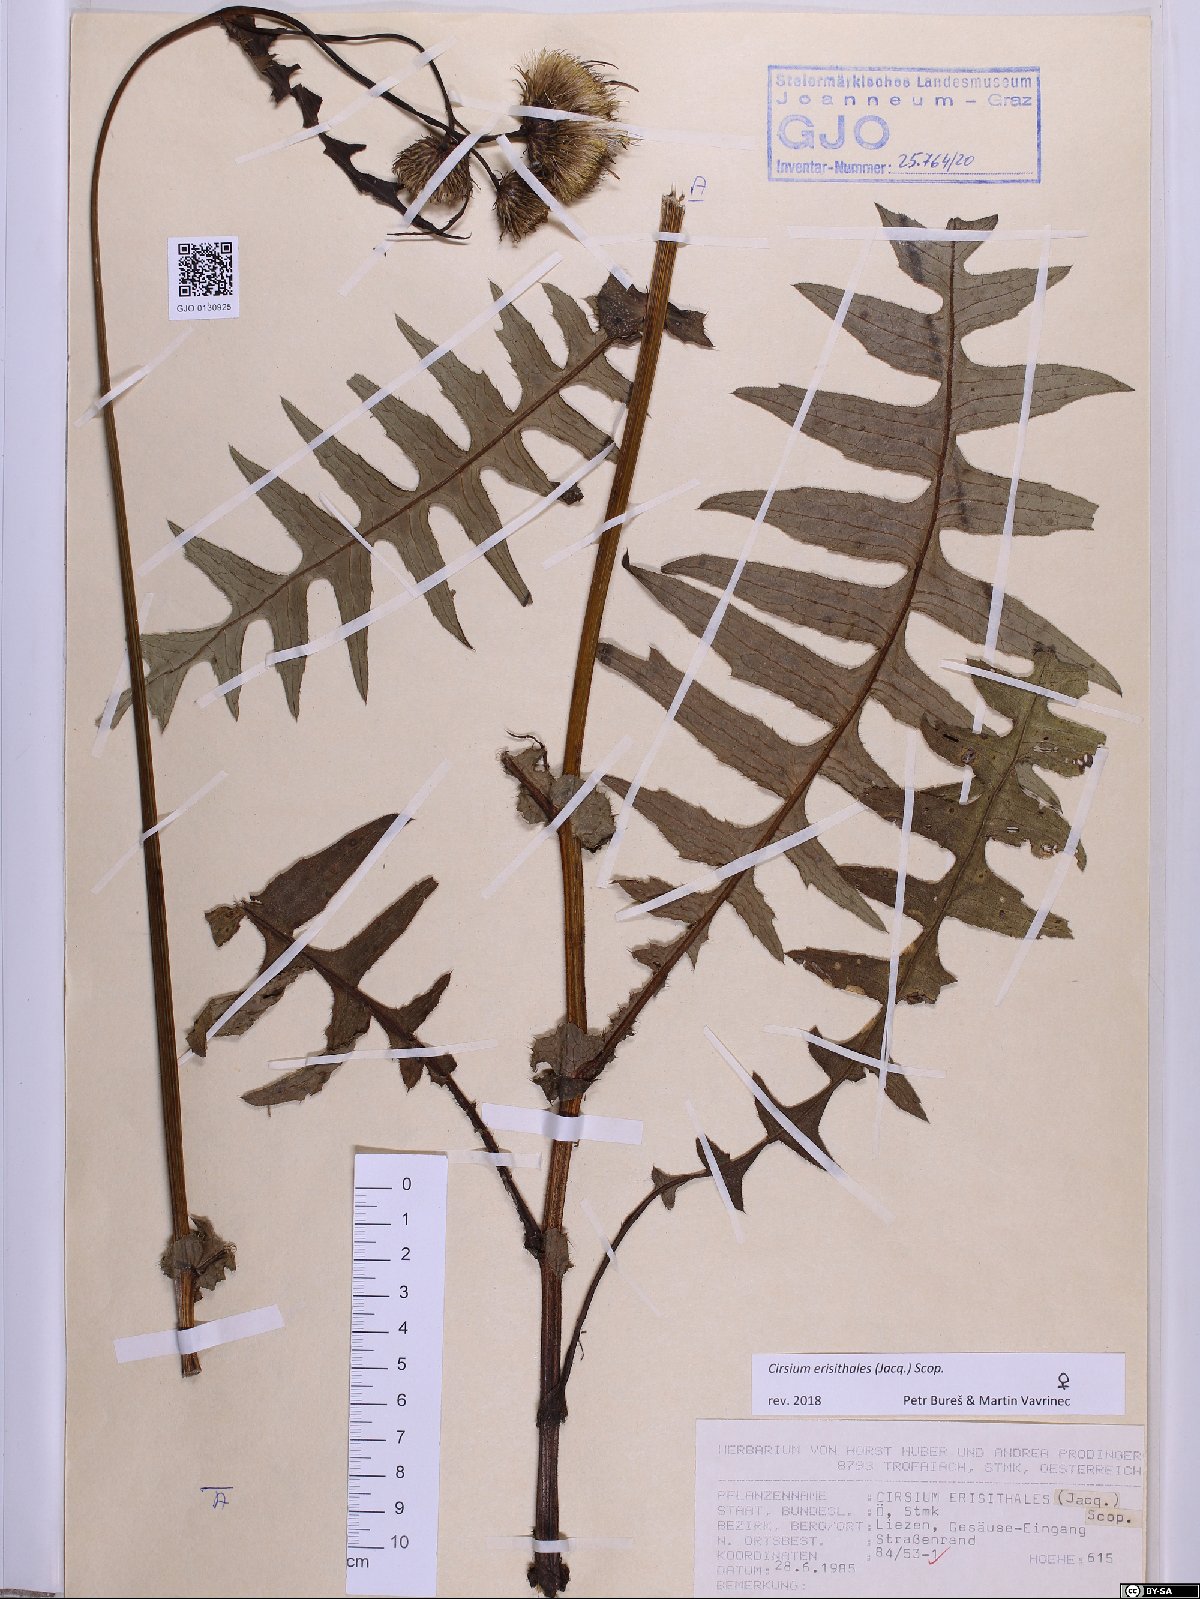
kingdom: Plantae
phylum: Tracheophyta
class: Magnoliopsida
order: Asterales
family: Asteraceae
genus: Cirsium
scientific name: Cirsium erisithales
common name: Yellow thistle
